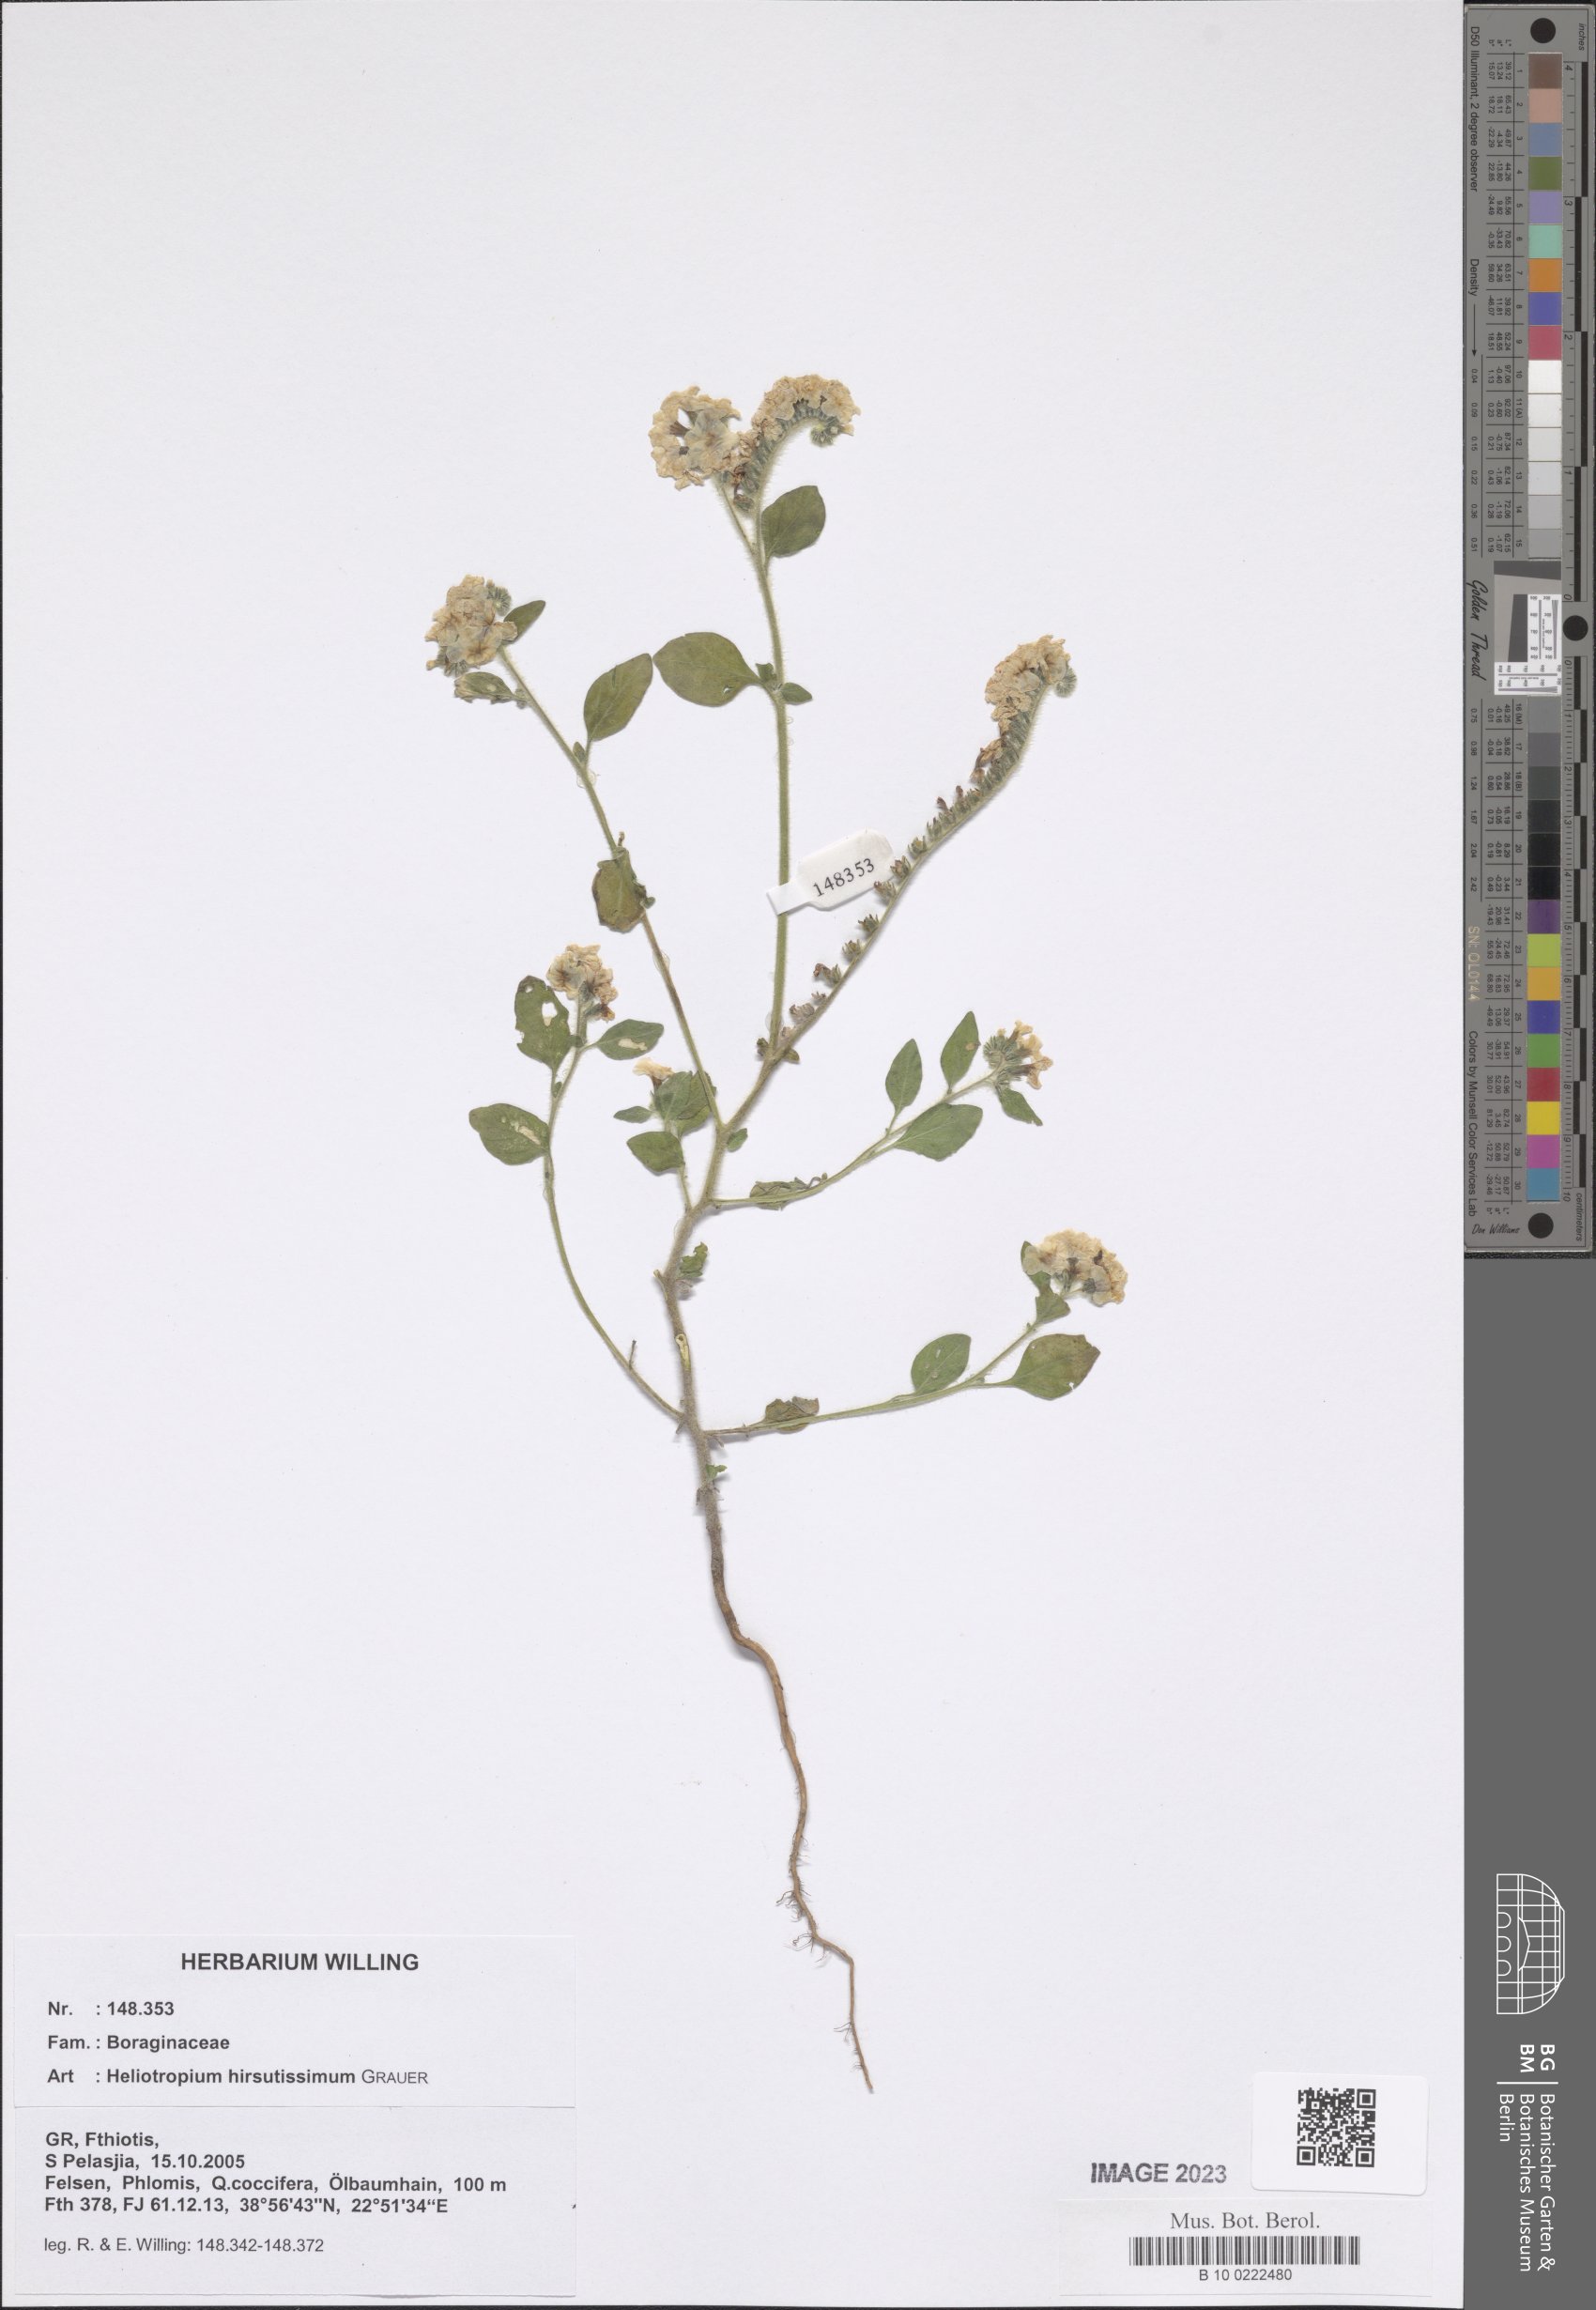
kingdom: Plantae
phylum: Tracheophyta
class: Magnoliopsida
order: Boraginales
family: Heliotropiaceae
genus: Heliotropium
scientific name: Heliotropium hirsutissimum
